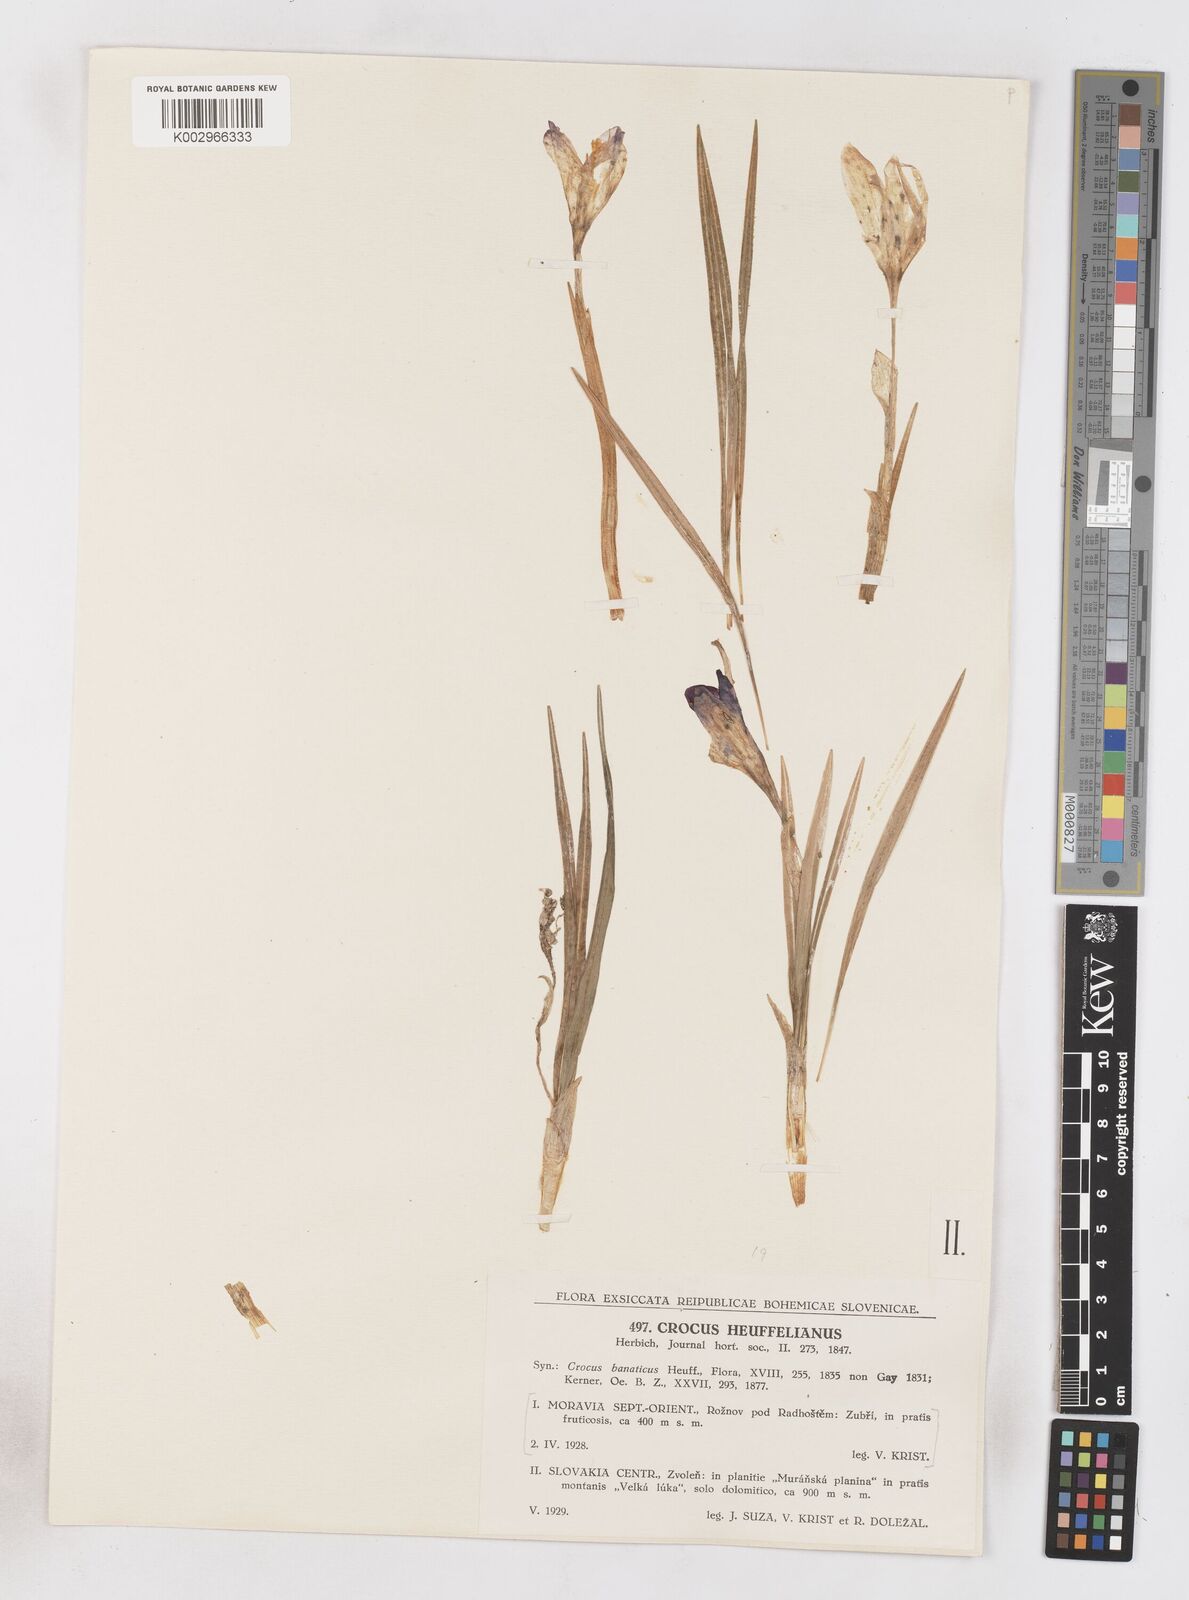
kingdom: Plantae
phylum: Tracheophyta
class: Liliopsida
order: Asparagales
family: Iridaceae
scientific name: Iridaceae
